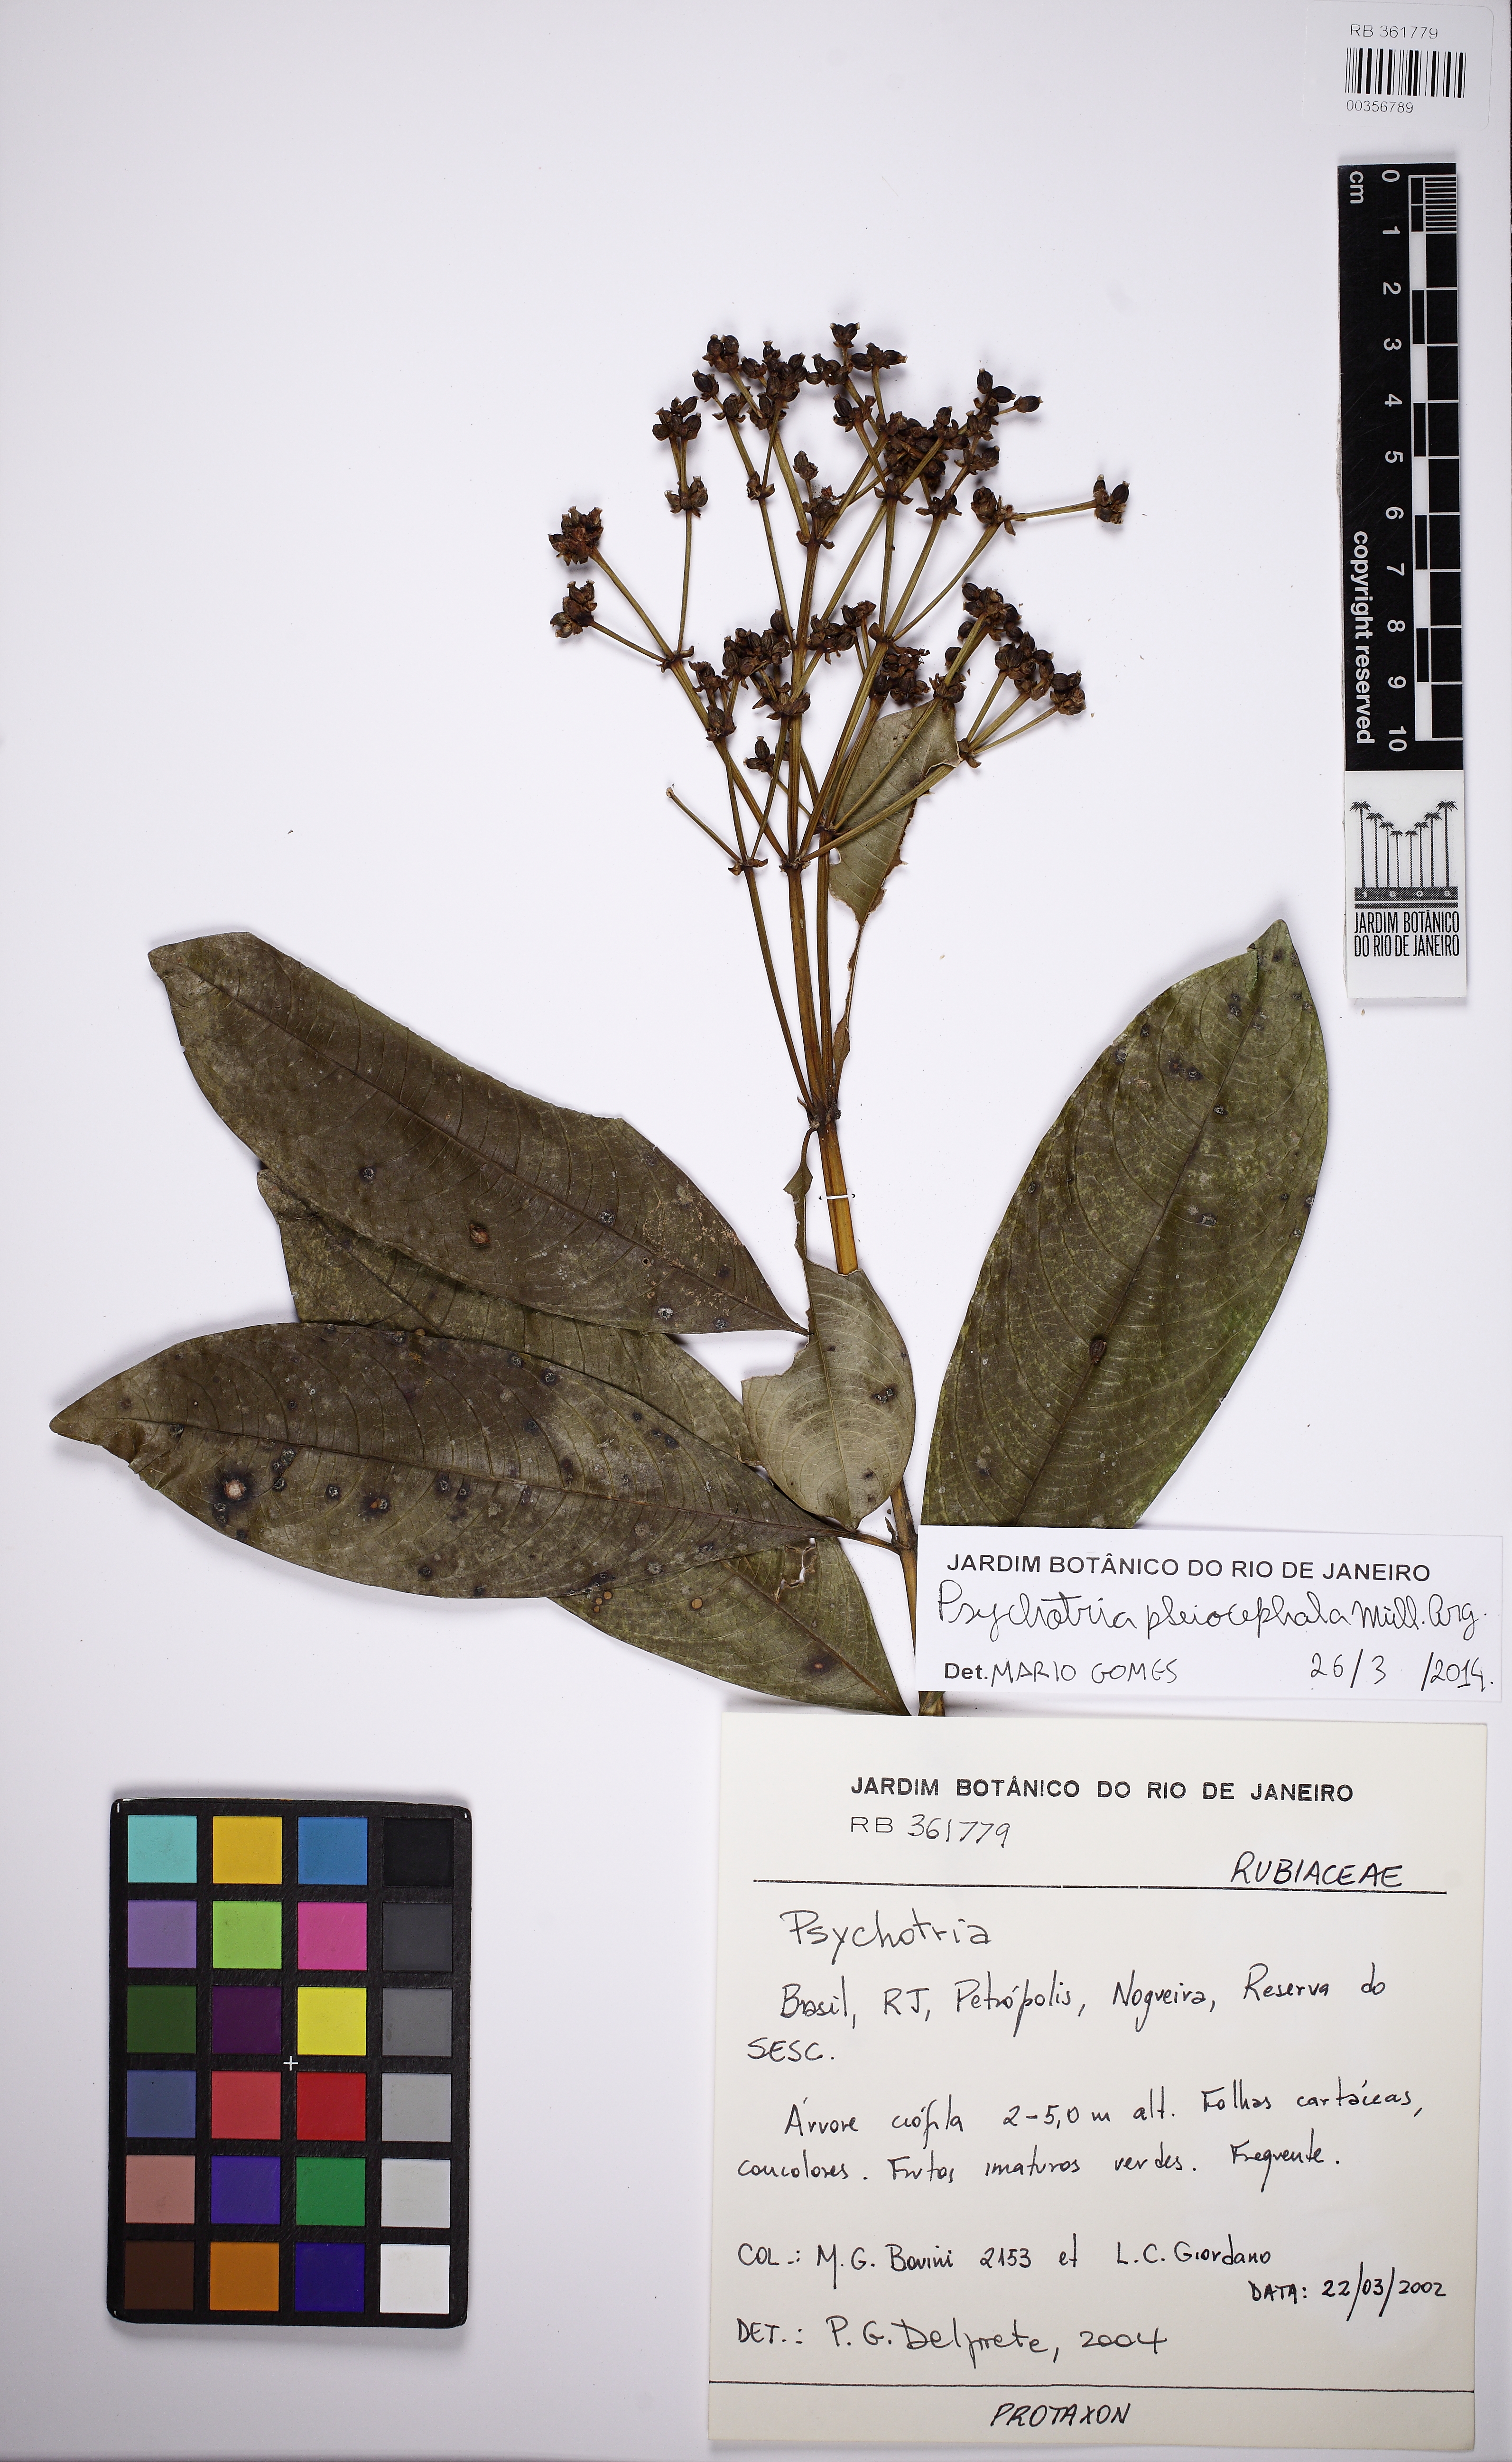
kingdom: Plantae
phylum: Tracheophyta
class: Magnoliopsida
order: Gentianales
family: Rubiaceae
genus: Palicourea
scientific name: Palicourea pleiocephala
